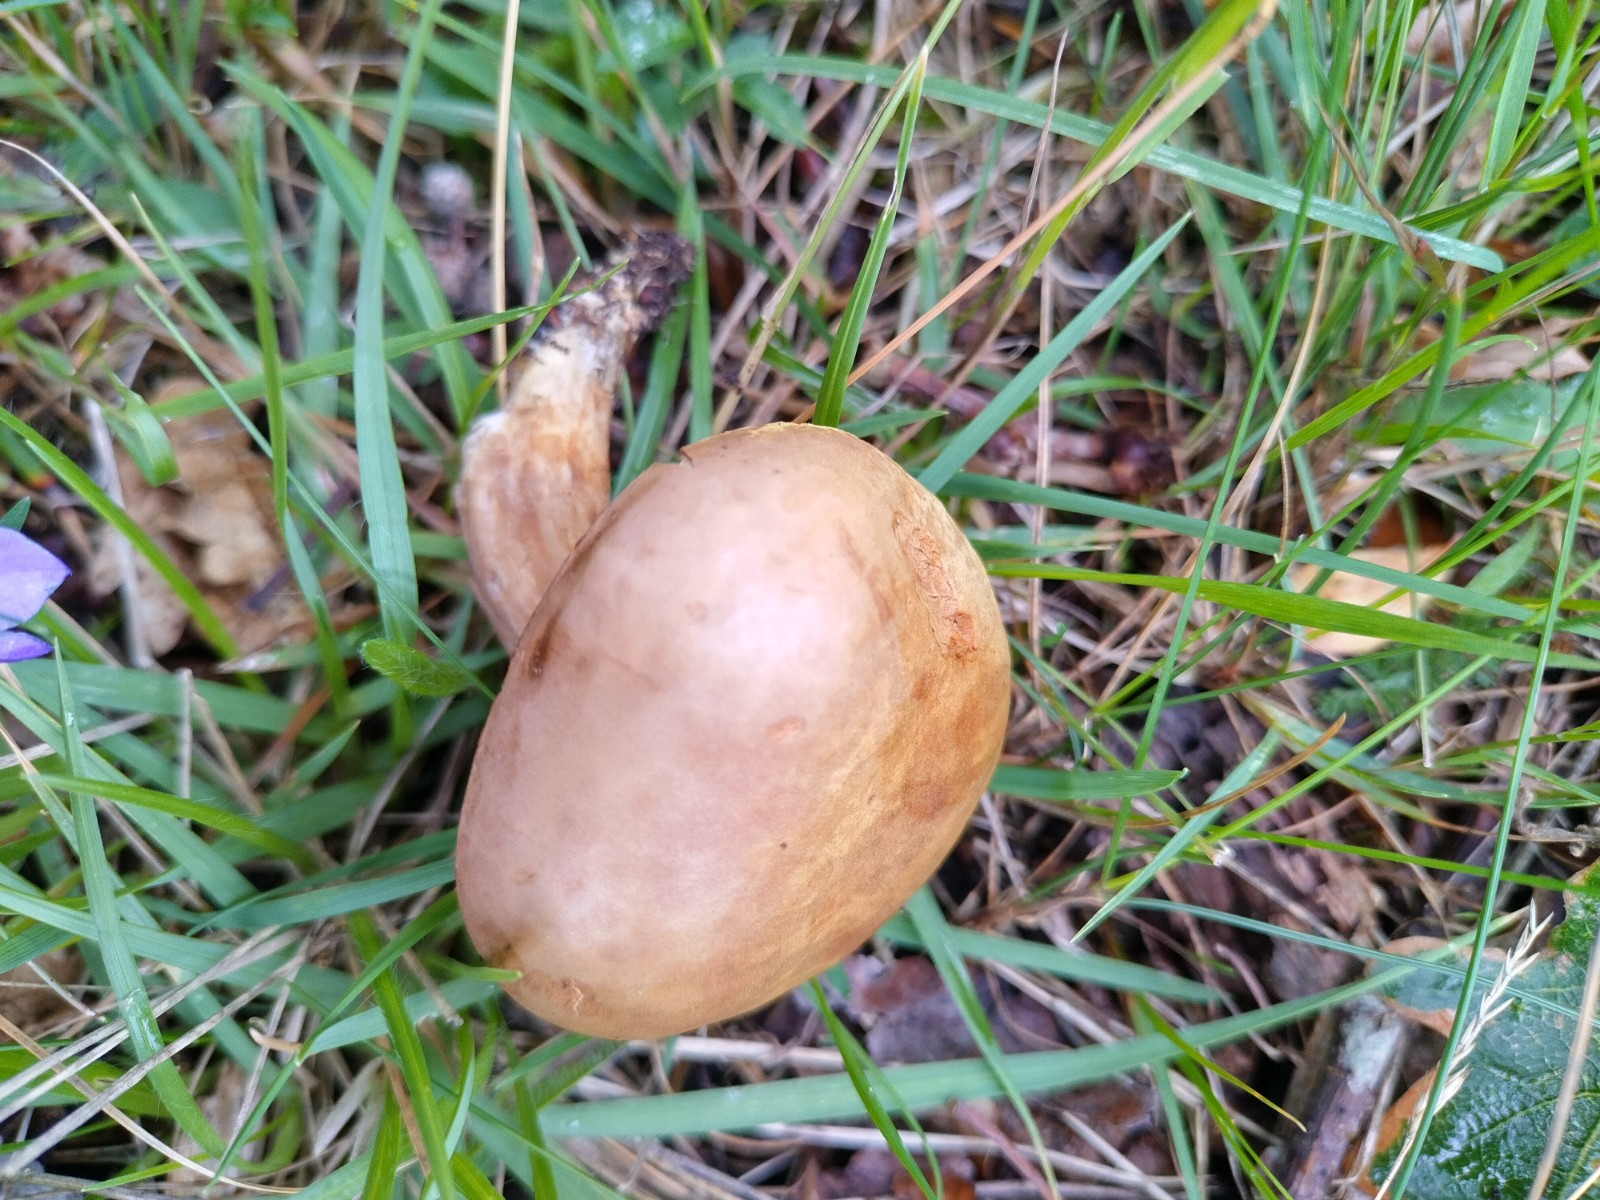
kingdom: Fungi
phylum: Basidiomycota
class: Agaricomycetes
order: Boletales
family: Boletaceae
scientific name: Boletaceae
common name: rørhatfamilien
